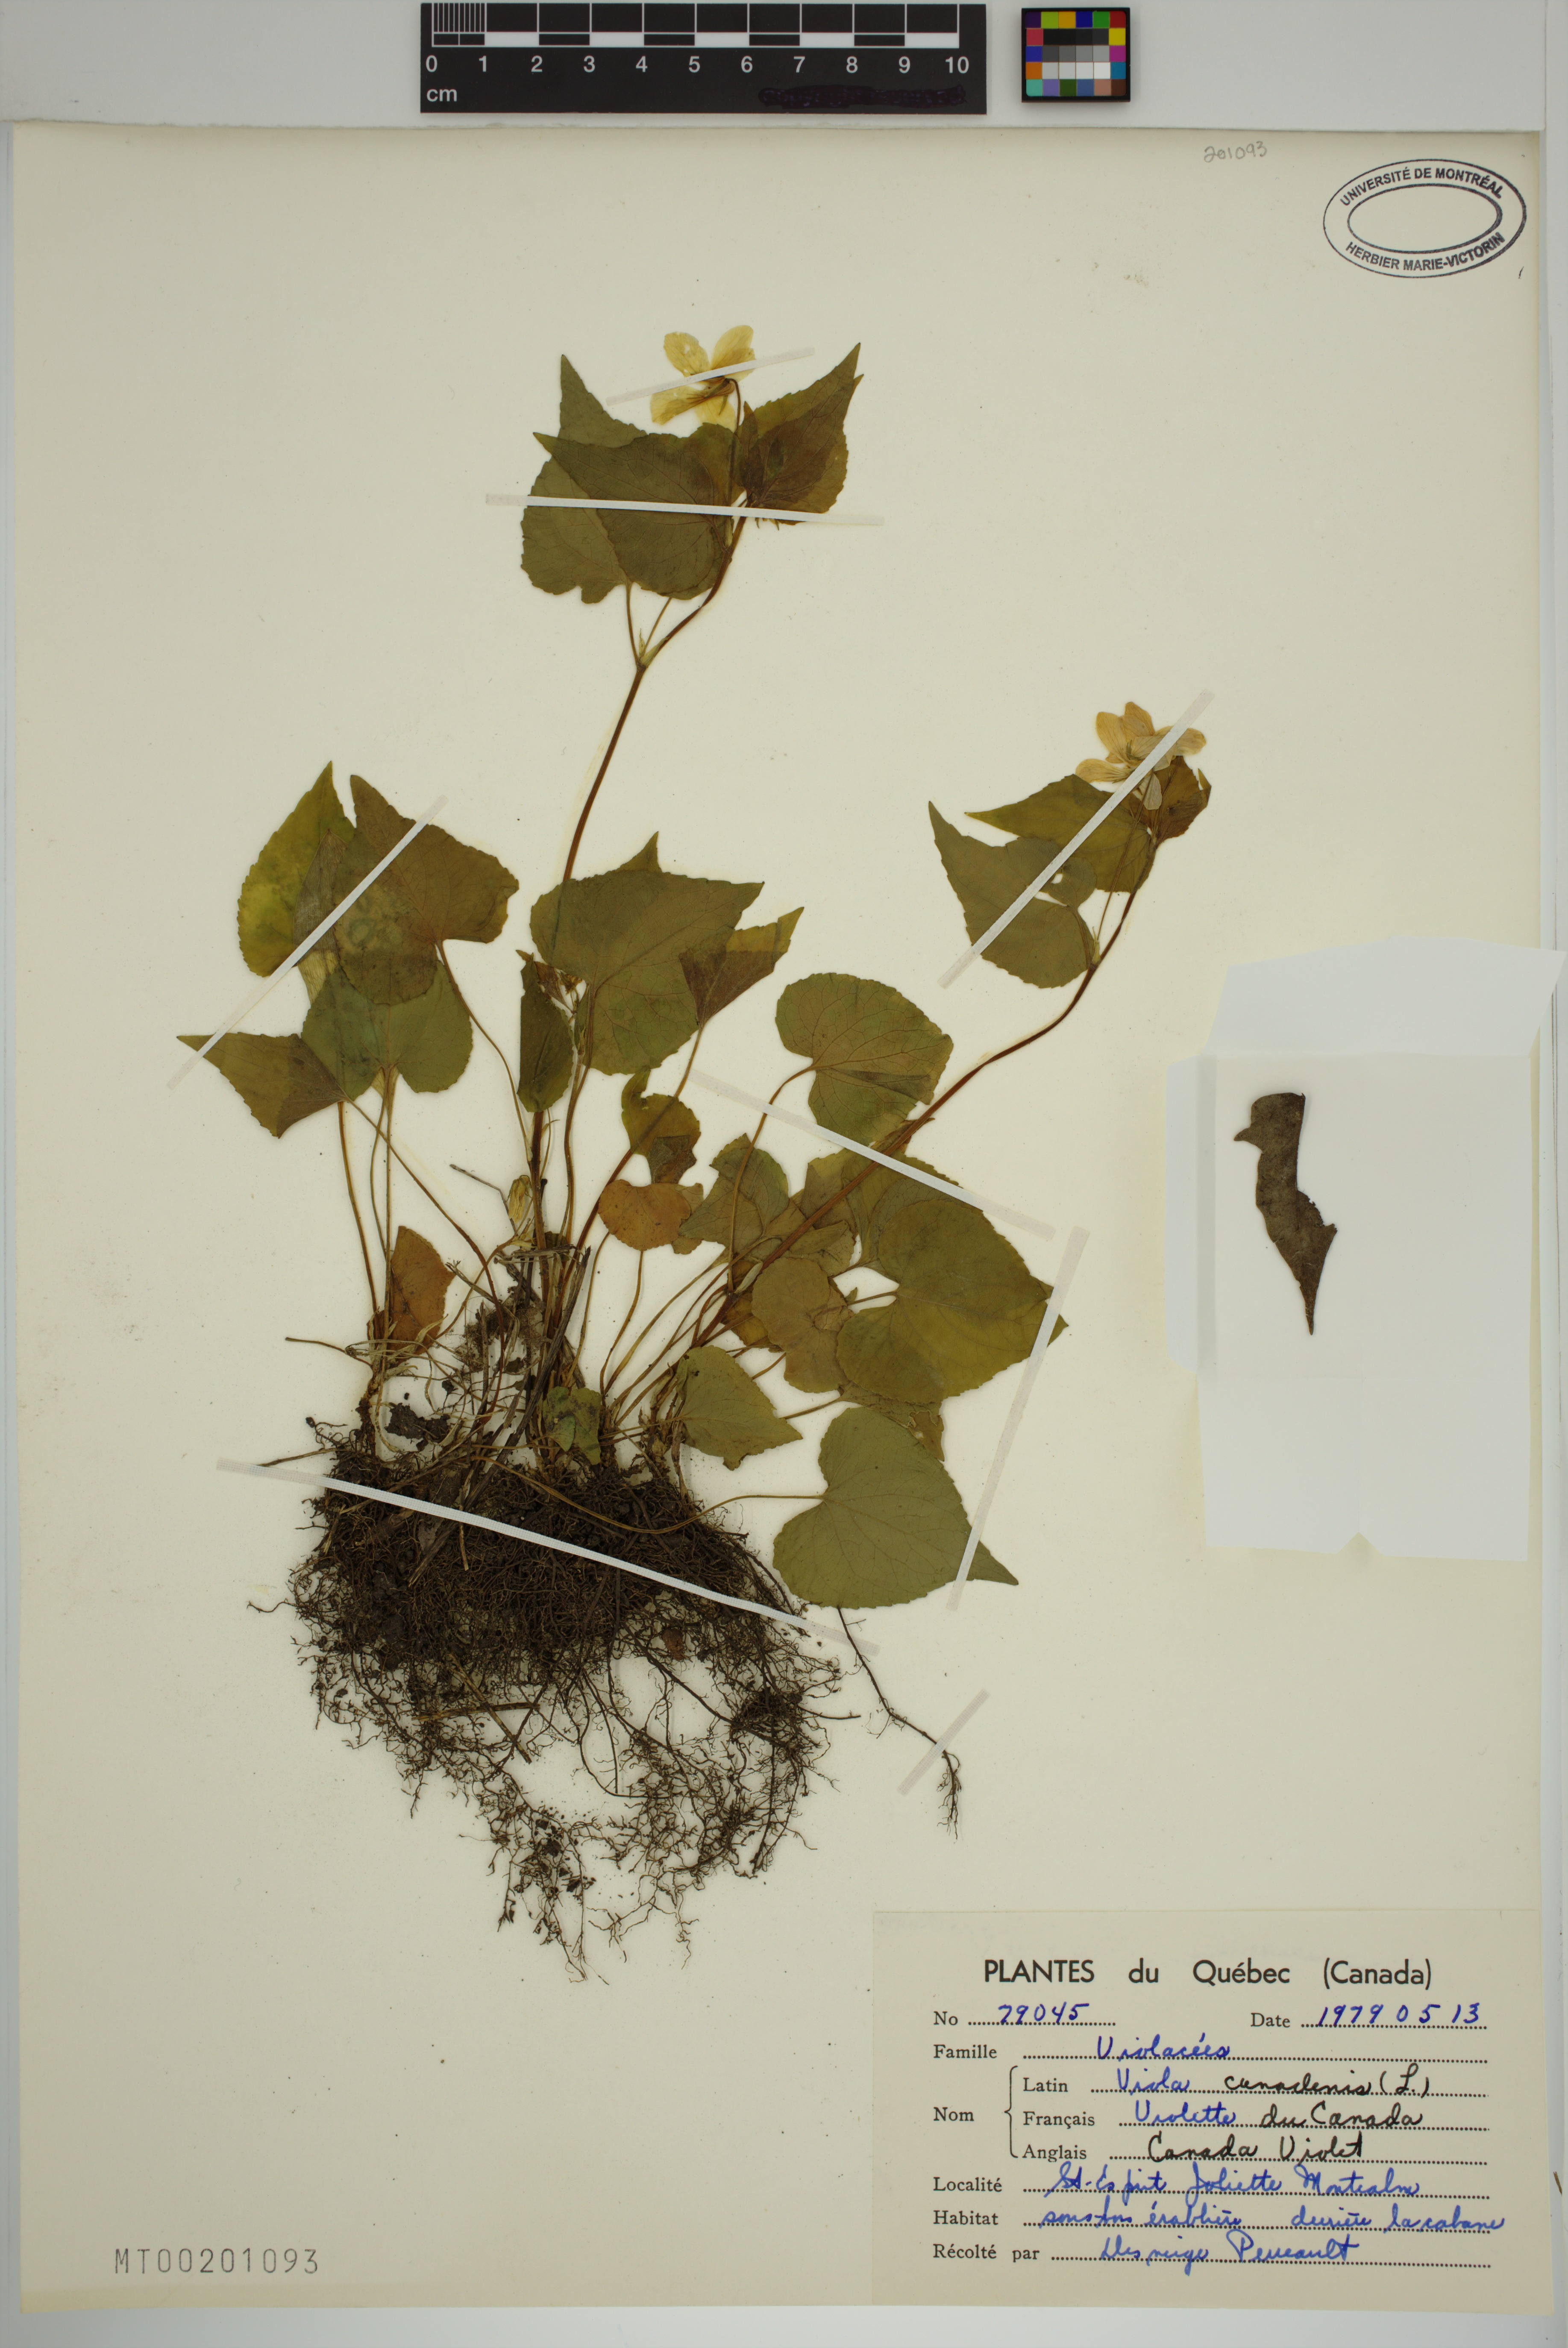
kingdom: Plantae
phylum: Tracheophyta
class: Magnoliopsida
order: Malpighiales
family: Violaceae
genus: Viola
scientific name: Viola canadensis
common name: Canada violet
